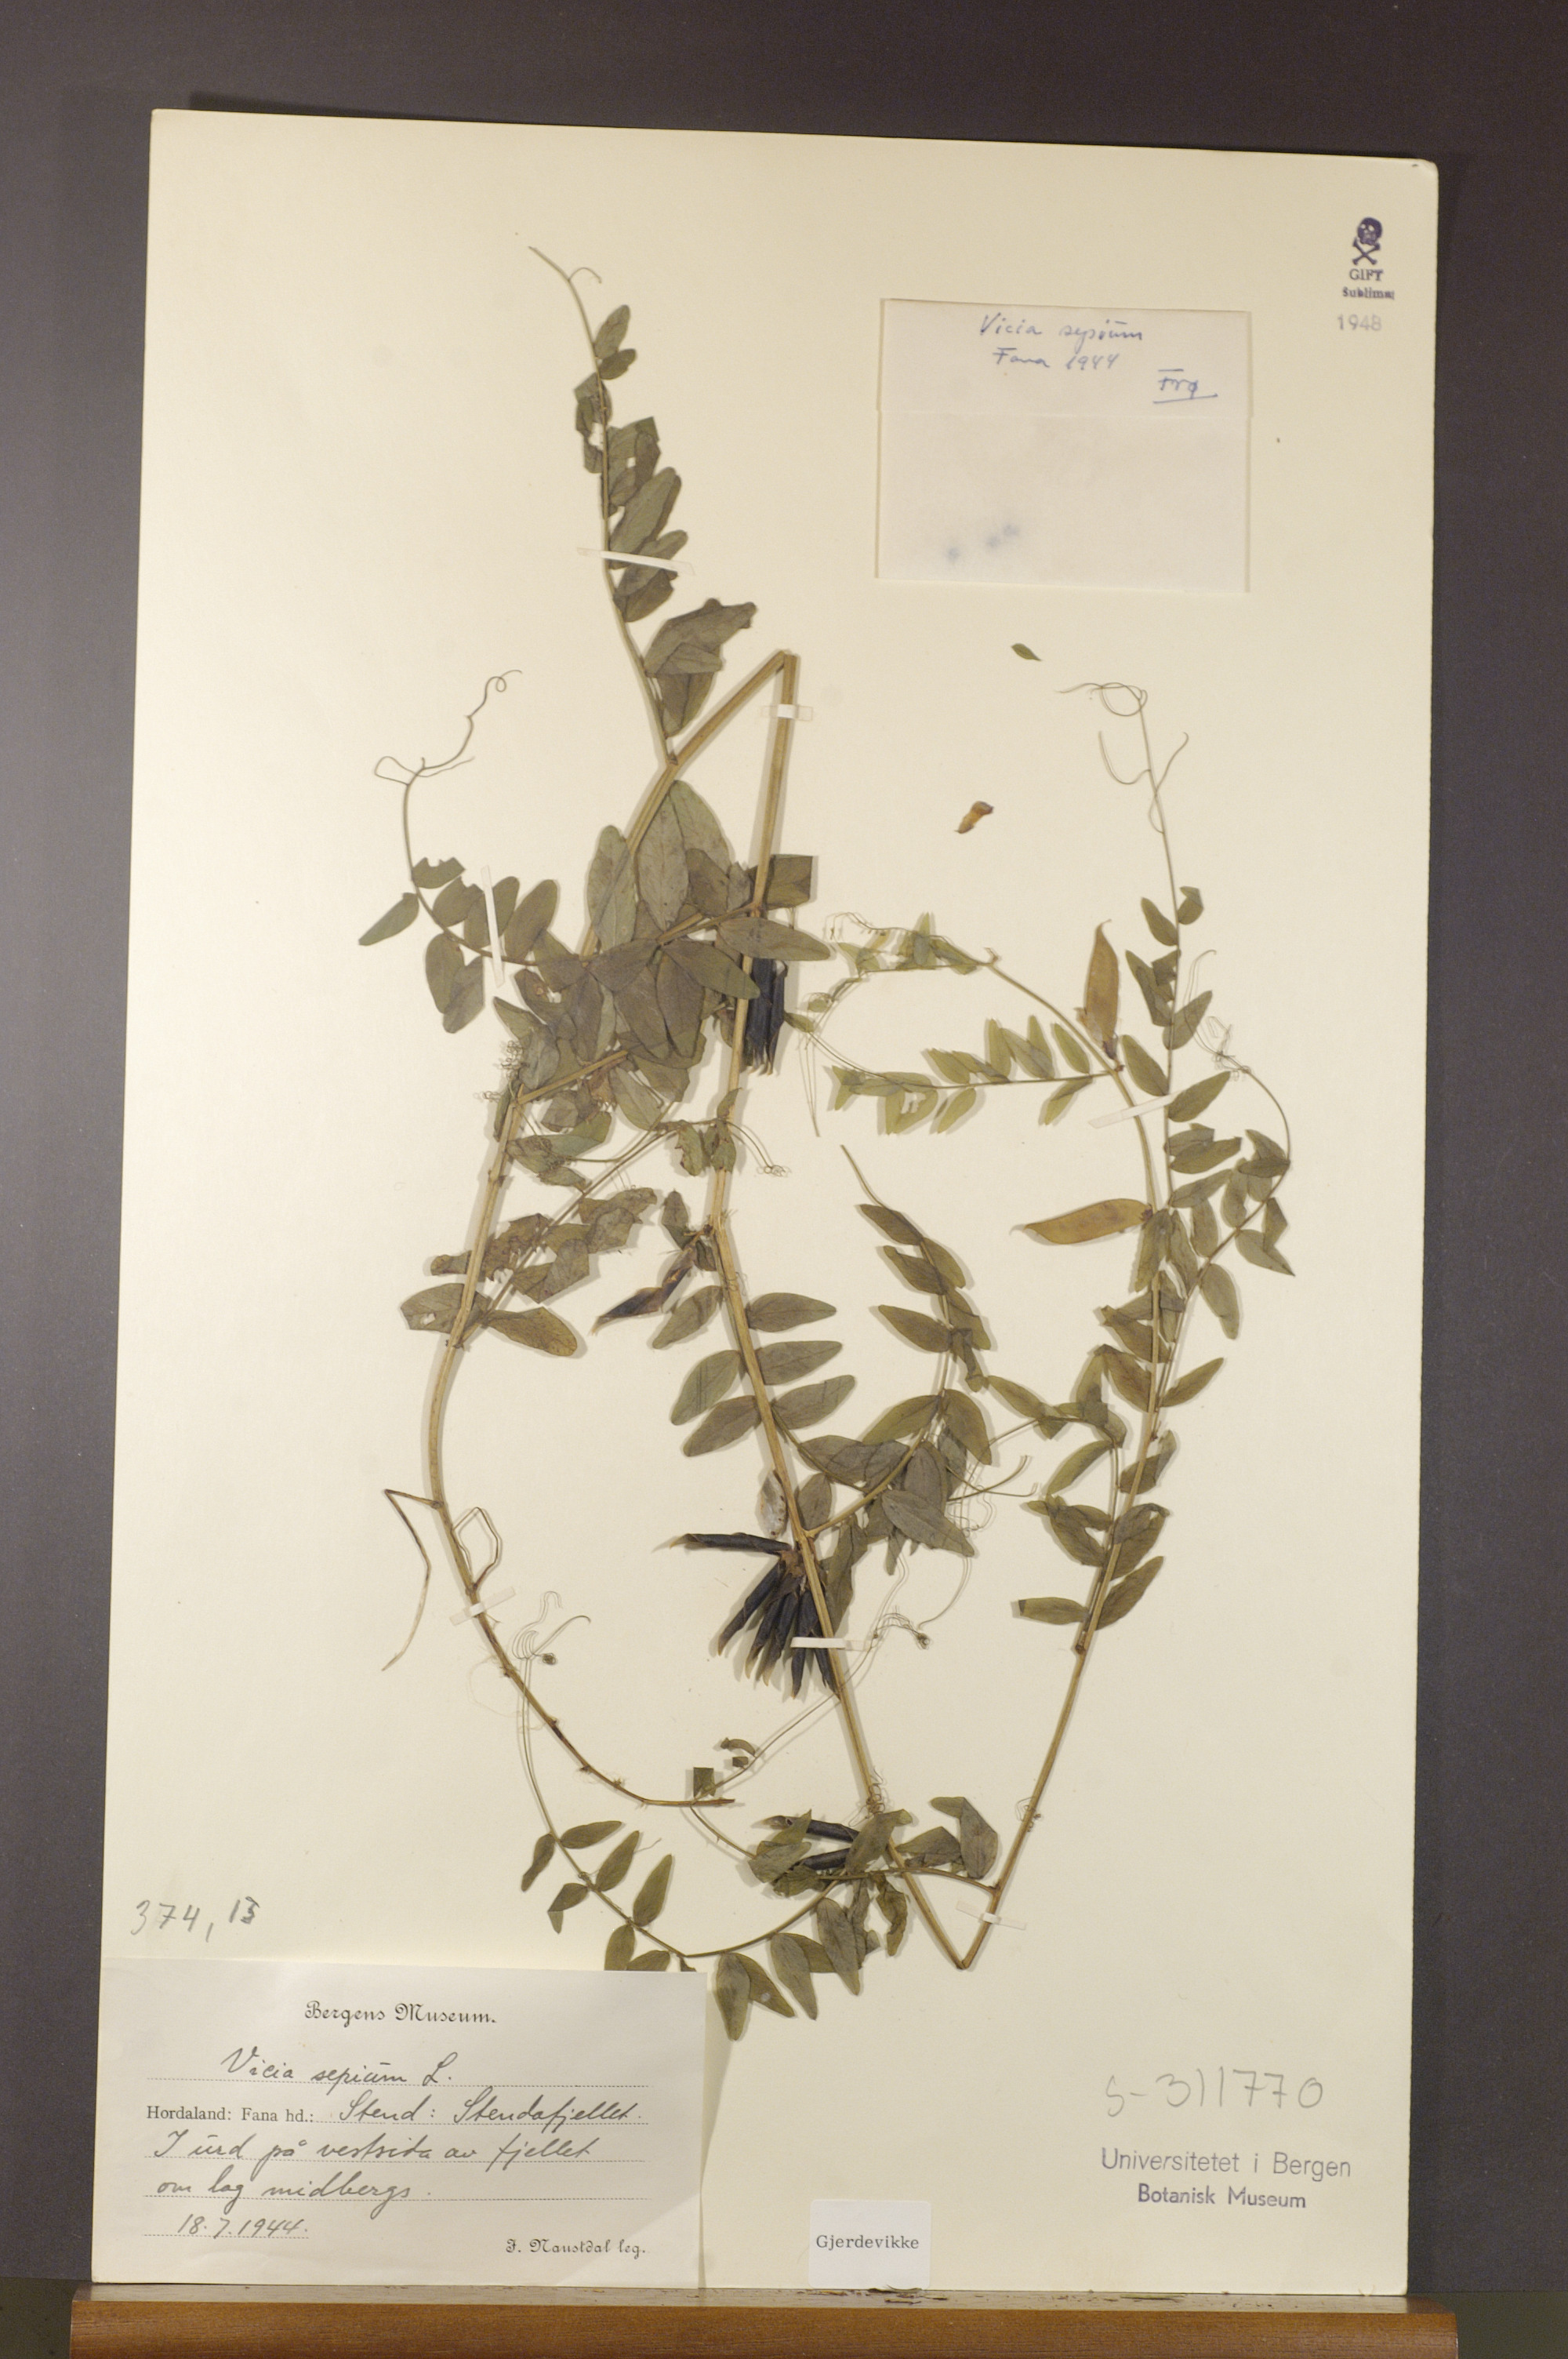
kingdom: Plantae
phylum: Tracheophyta
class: Magnoliopsida
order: Fabales
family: Fabaceae
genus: Vicia
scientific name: Vicia sepium
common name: Bush vetch
